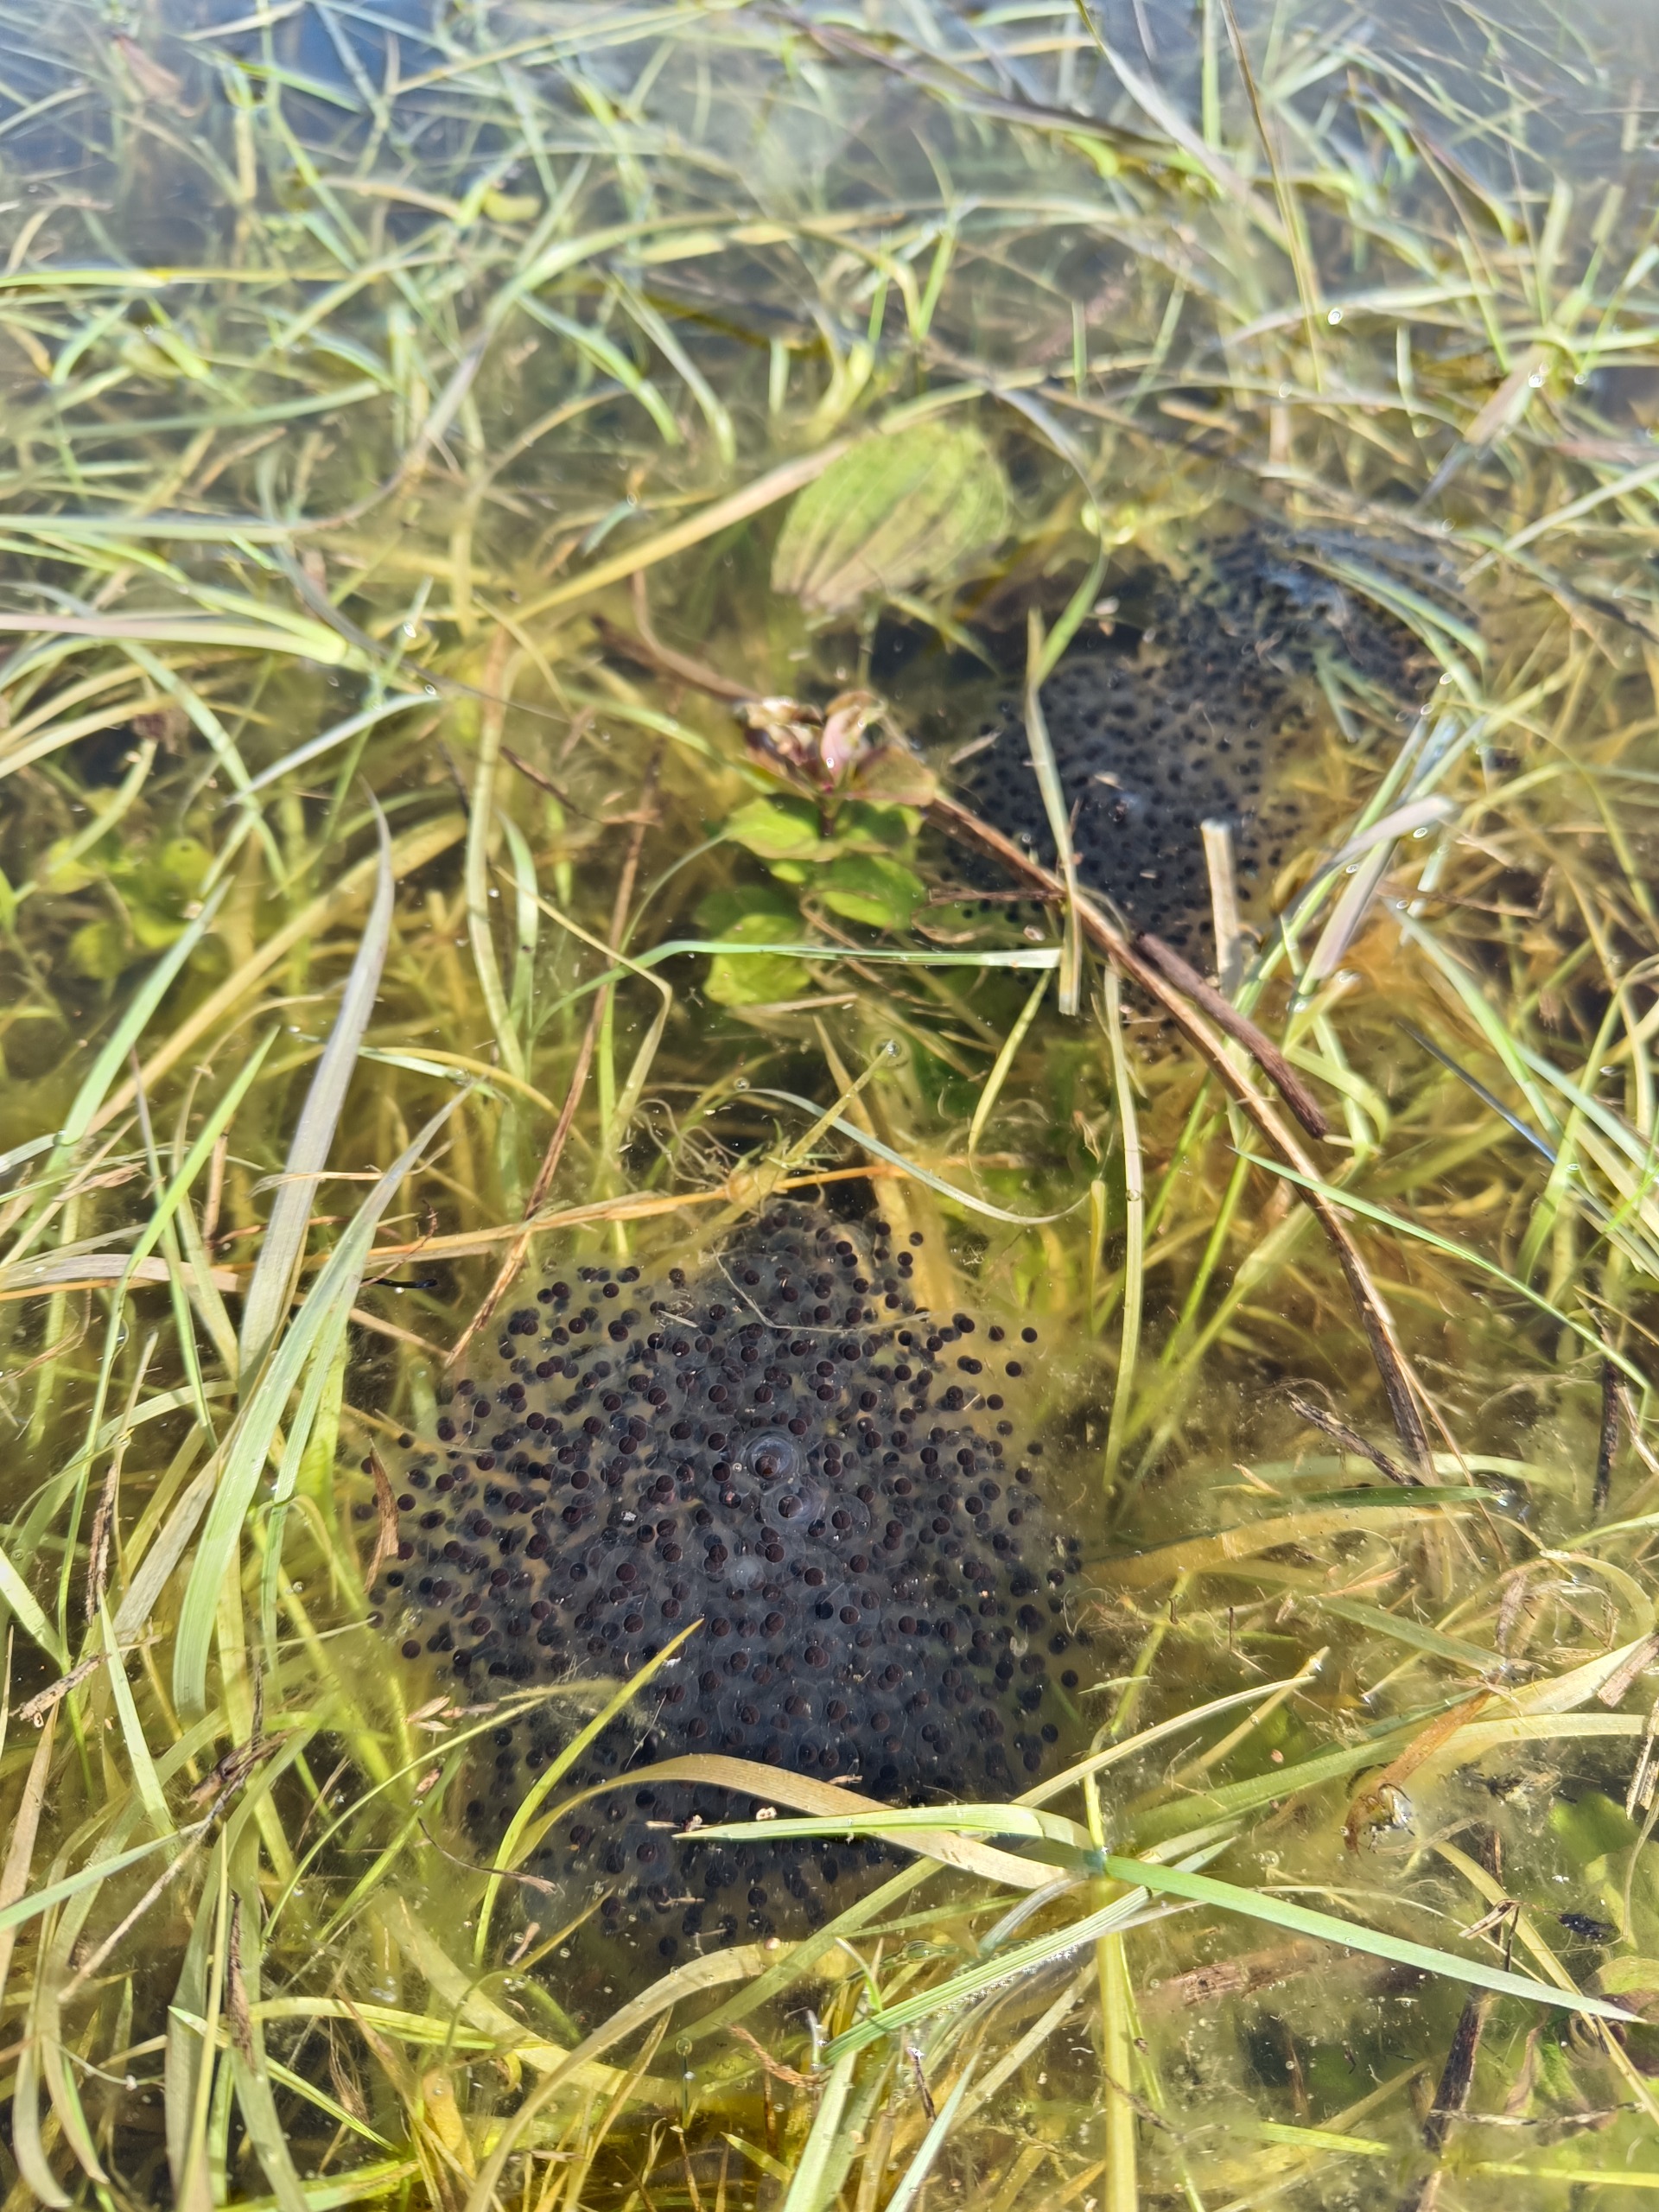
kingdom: Animalia
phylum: Chordata
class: Amphibia
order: Anura
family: Ranidae
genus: Rana
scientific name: Rana arvalis
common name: Spidssnudet frø
